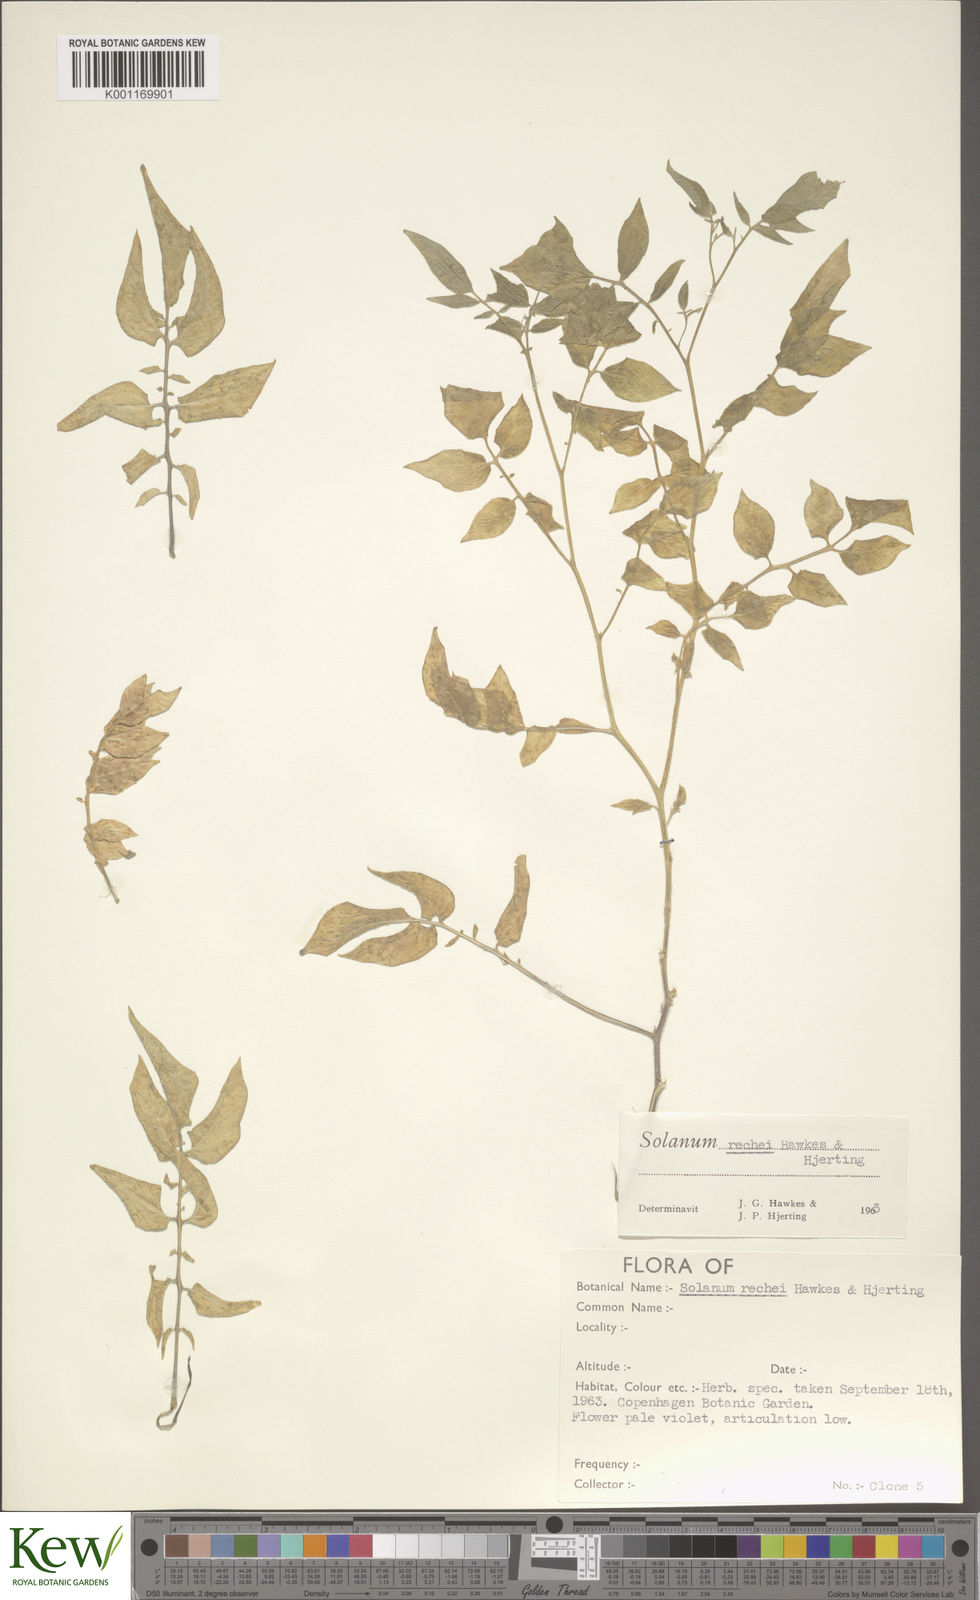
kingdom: Plantae
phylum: Tracheophyta
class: Magnoliopsida
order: Solanales
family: Solanaceae
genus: Solanum
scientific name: Solanum rechei
